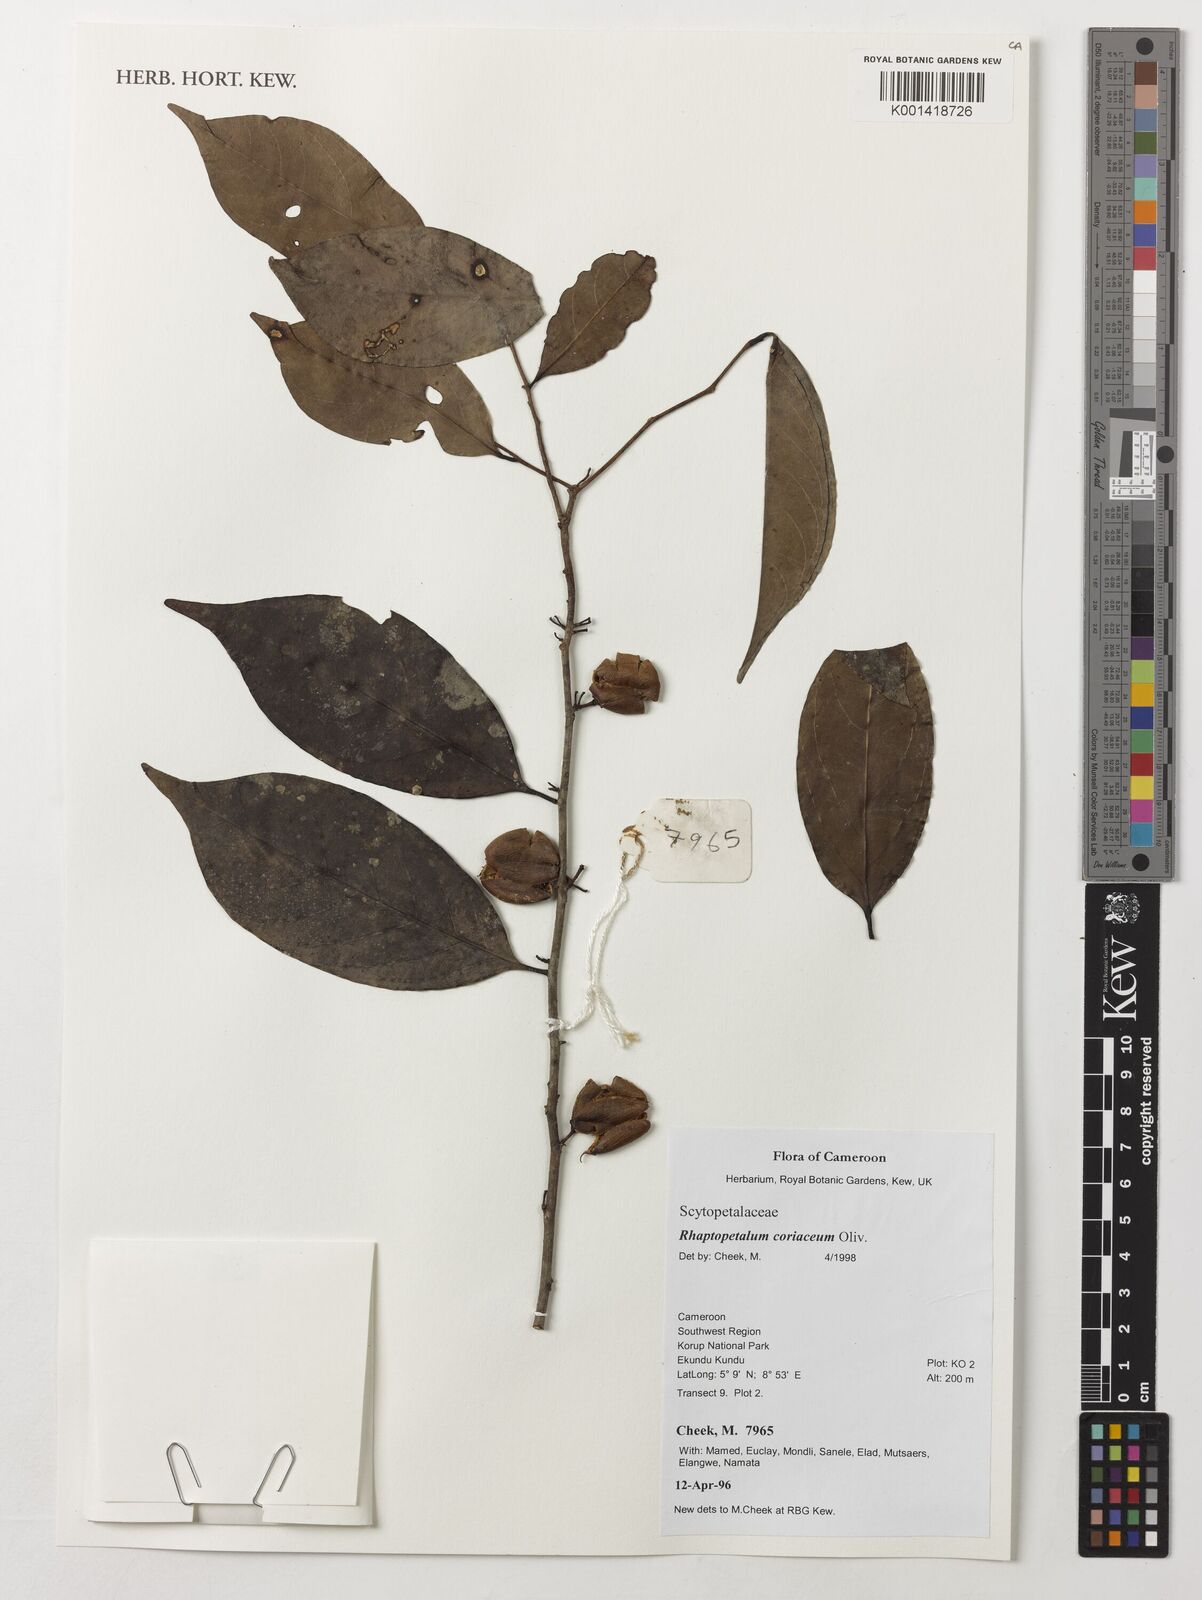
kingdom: Plantae
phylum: Tracheophyta
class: Magnoliopsida
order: Ericales
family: Lecythidaceae
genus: Rhaptopetalum
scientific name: Rhaptopetalum coriaceum
